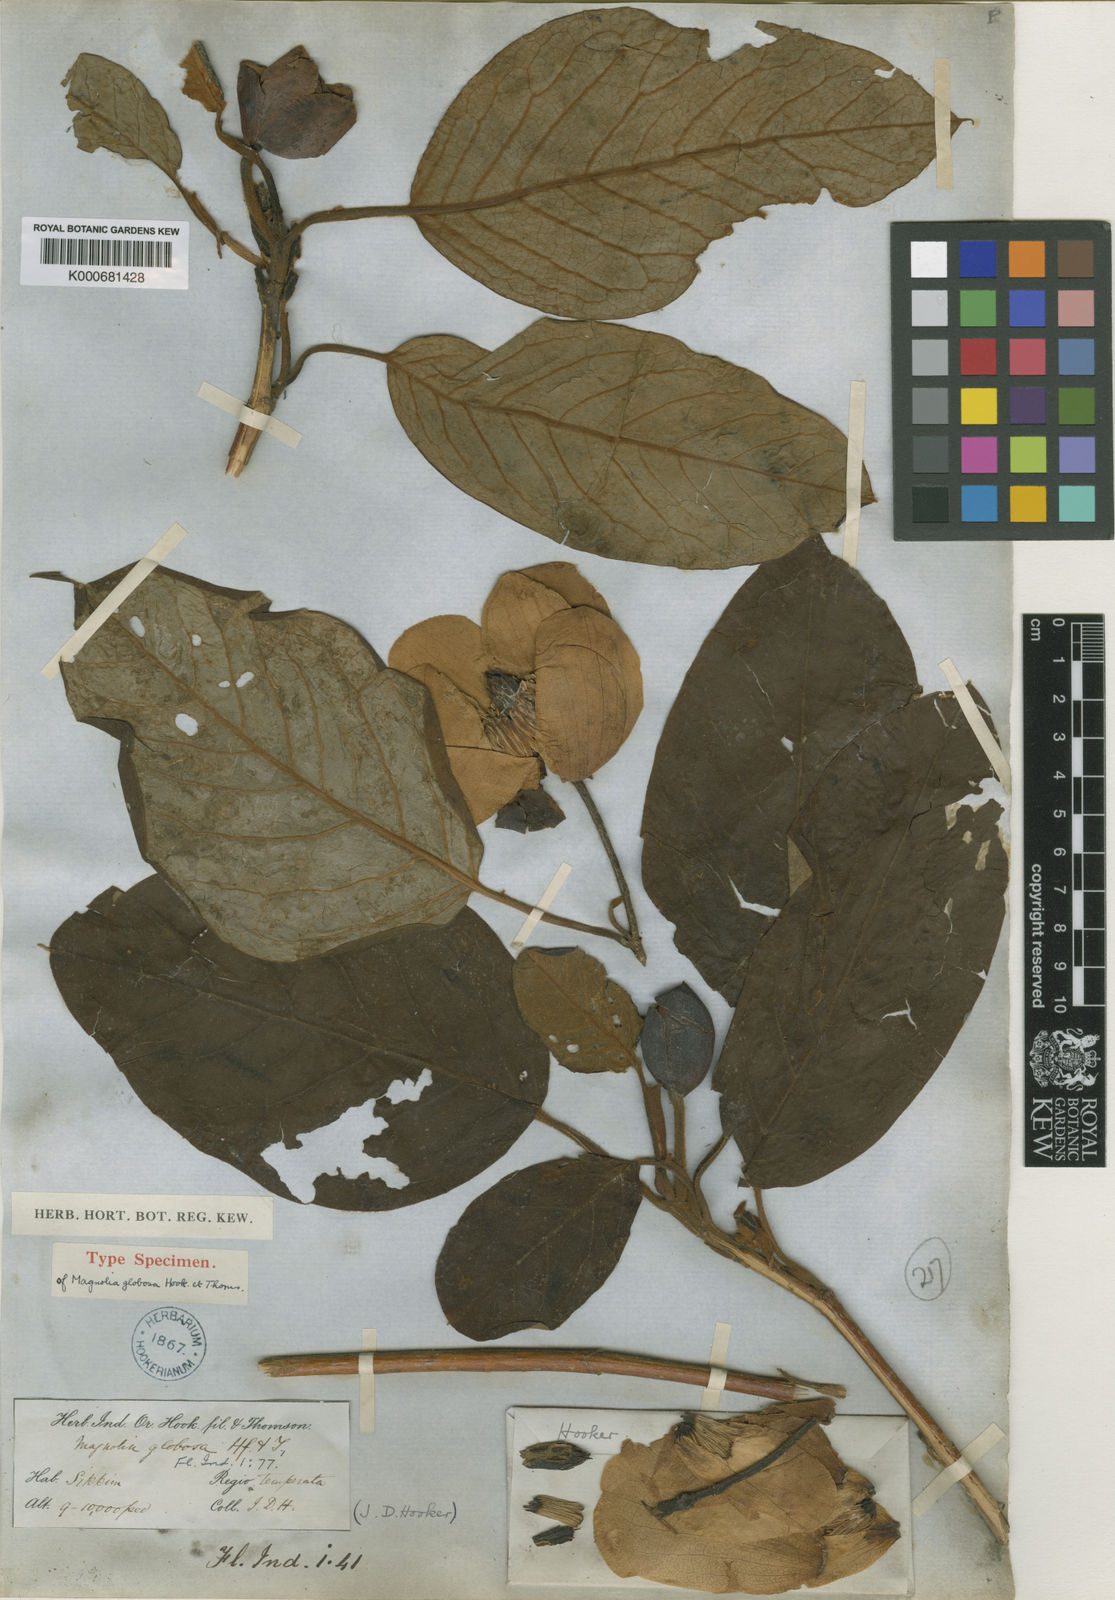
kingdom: Plantae
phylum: Tracheophyta
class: Magnoliopsida
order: Magnoliales
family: Magnoliaceae
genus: Magnolia
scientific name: Magnolia globosa
